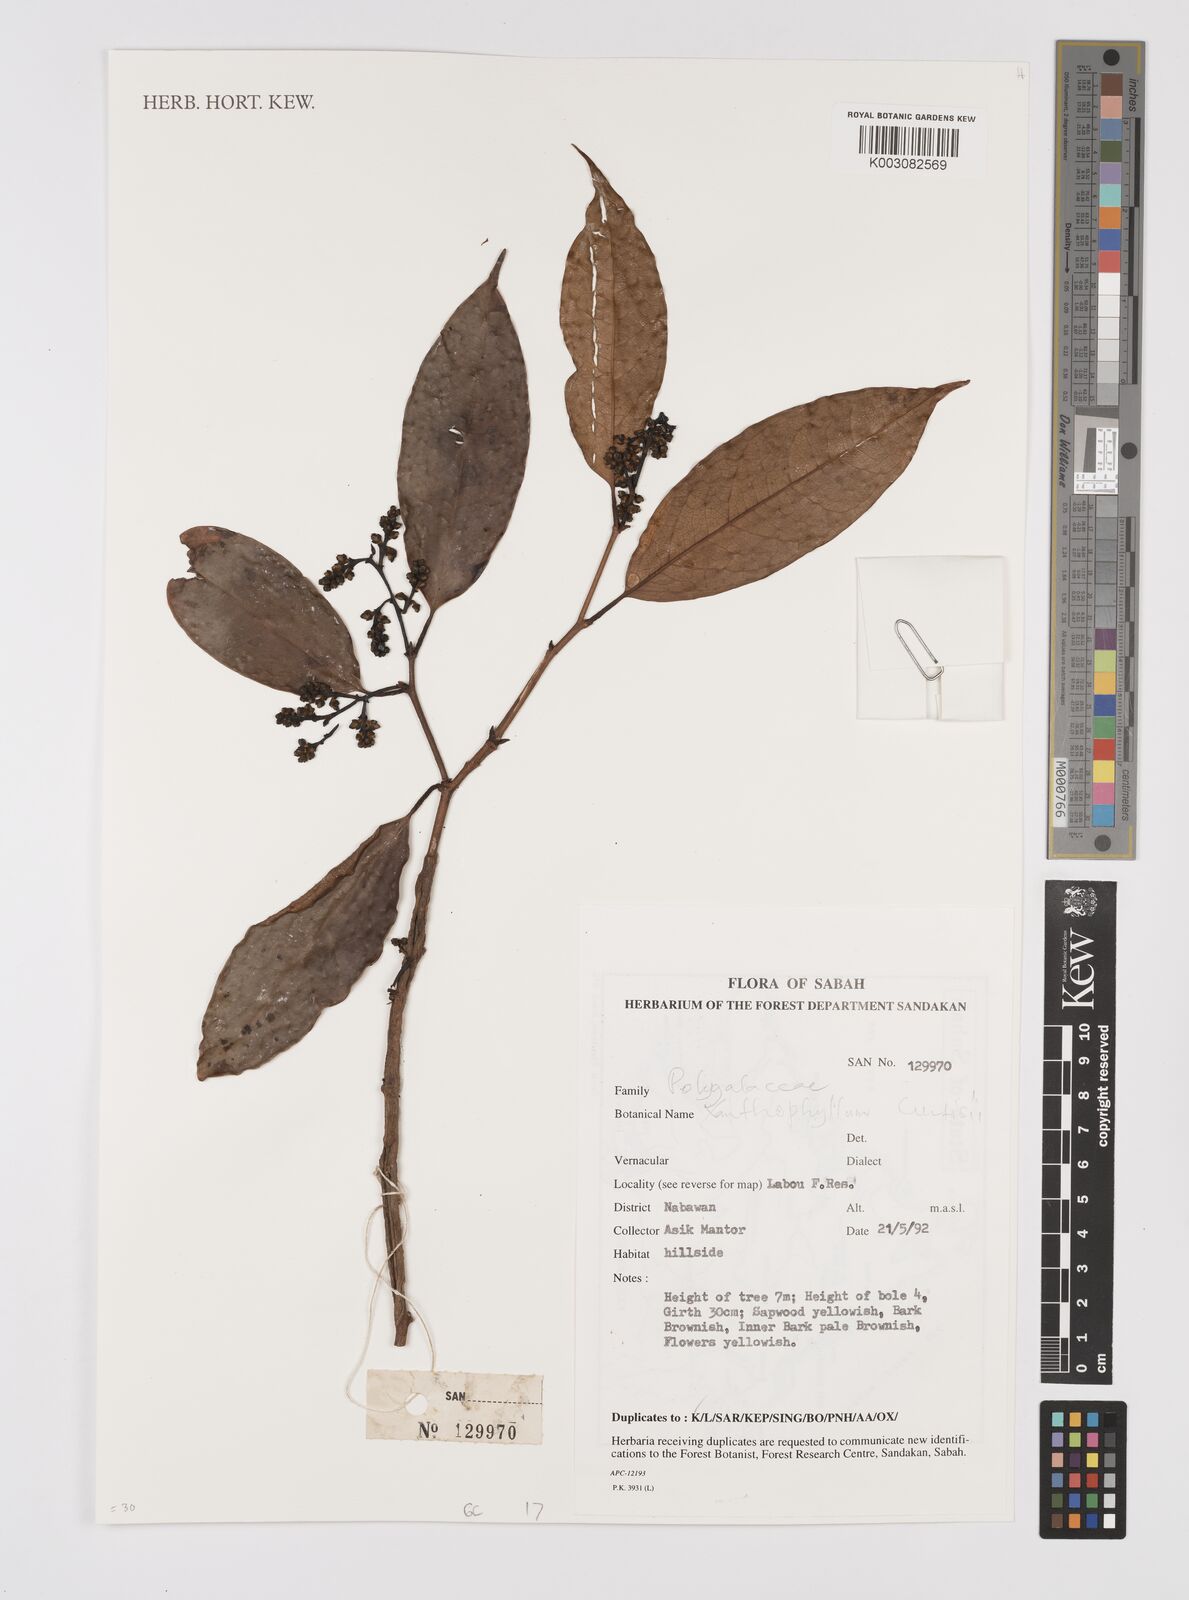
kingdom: Plantae
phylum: Tracheophyta
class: Magnoliopsida
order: Fabales
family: Polygalaceae
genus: Xanthophyllum
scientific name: Xanthophyllum vitellinum
